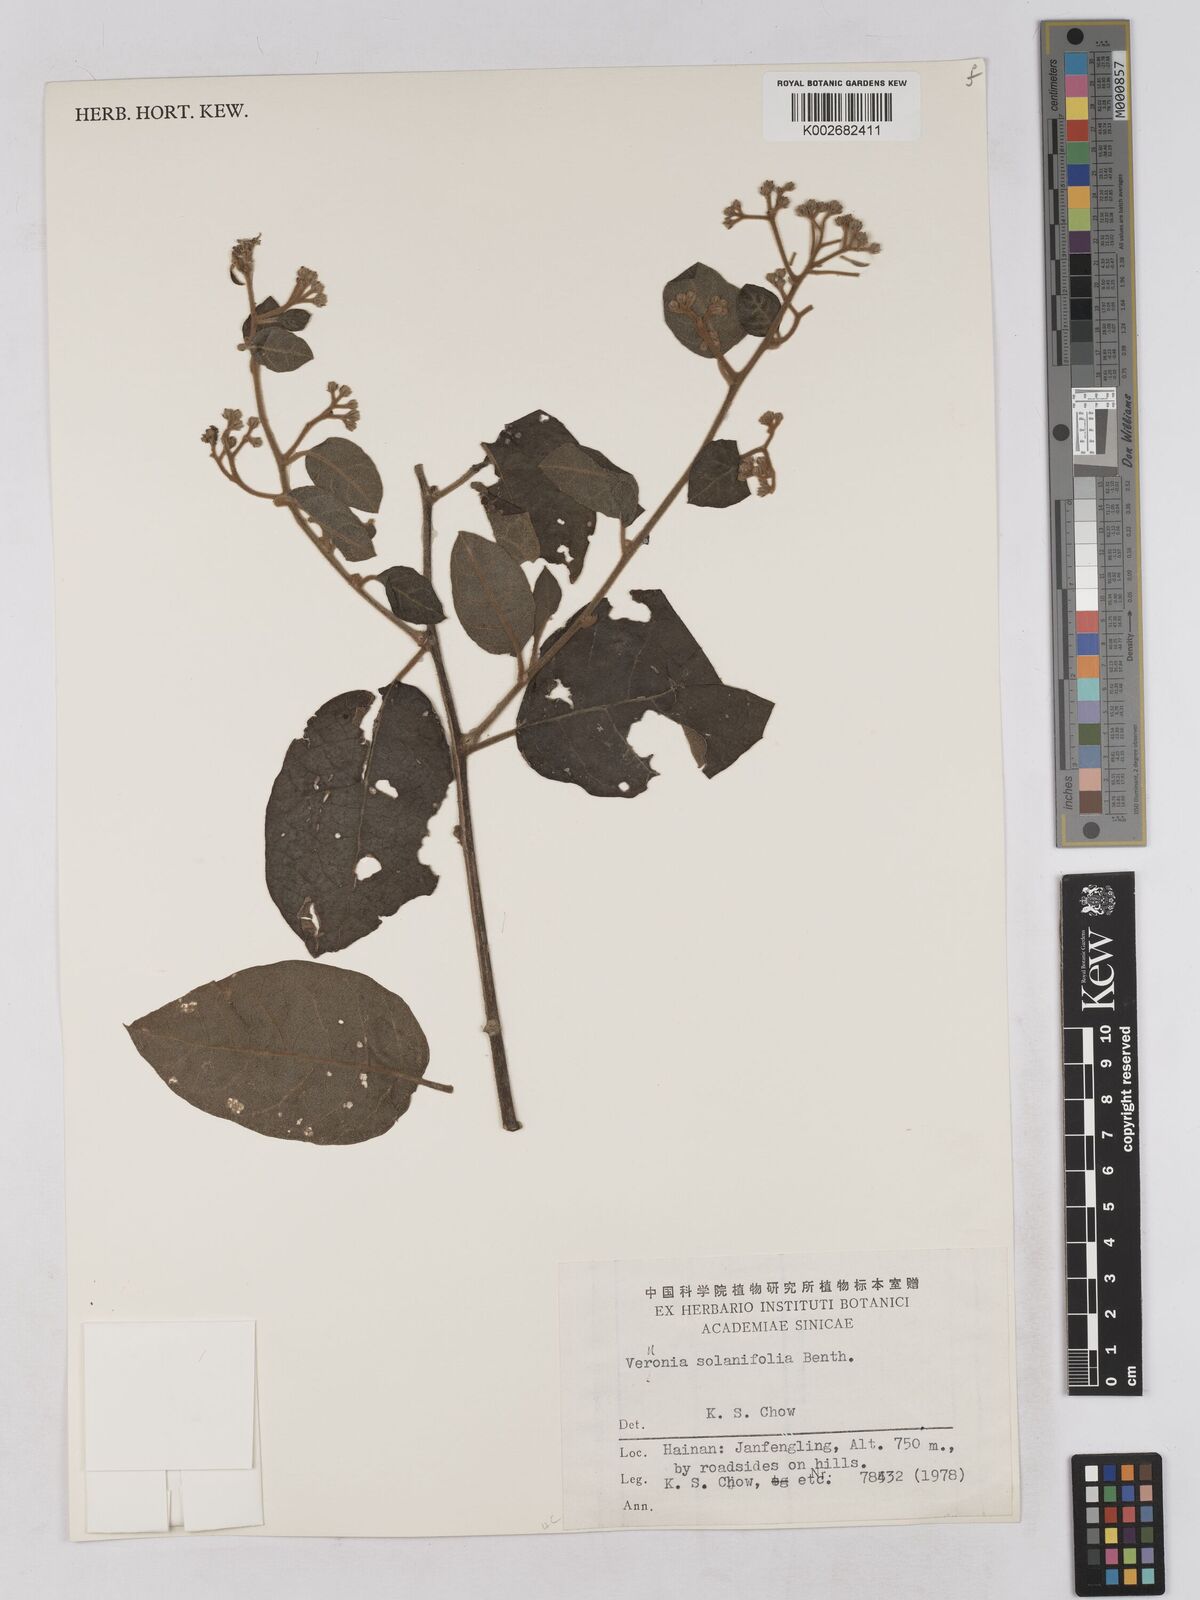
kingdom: Plantae
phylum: Tracheophyta
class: Magnoliopsida
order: Asterales
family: Asteraceae
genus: Strobocalyx
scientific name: Strobocalyx solanifolia
